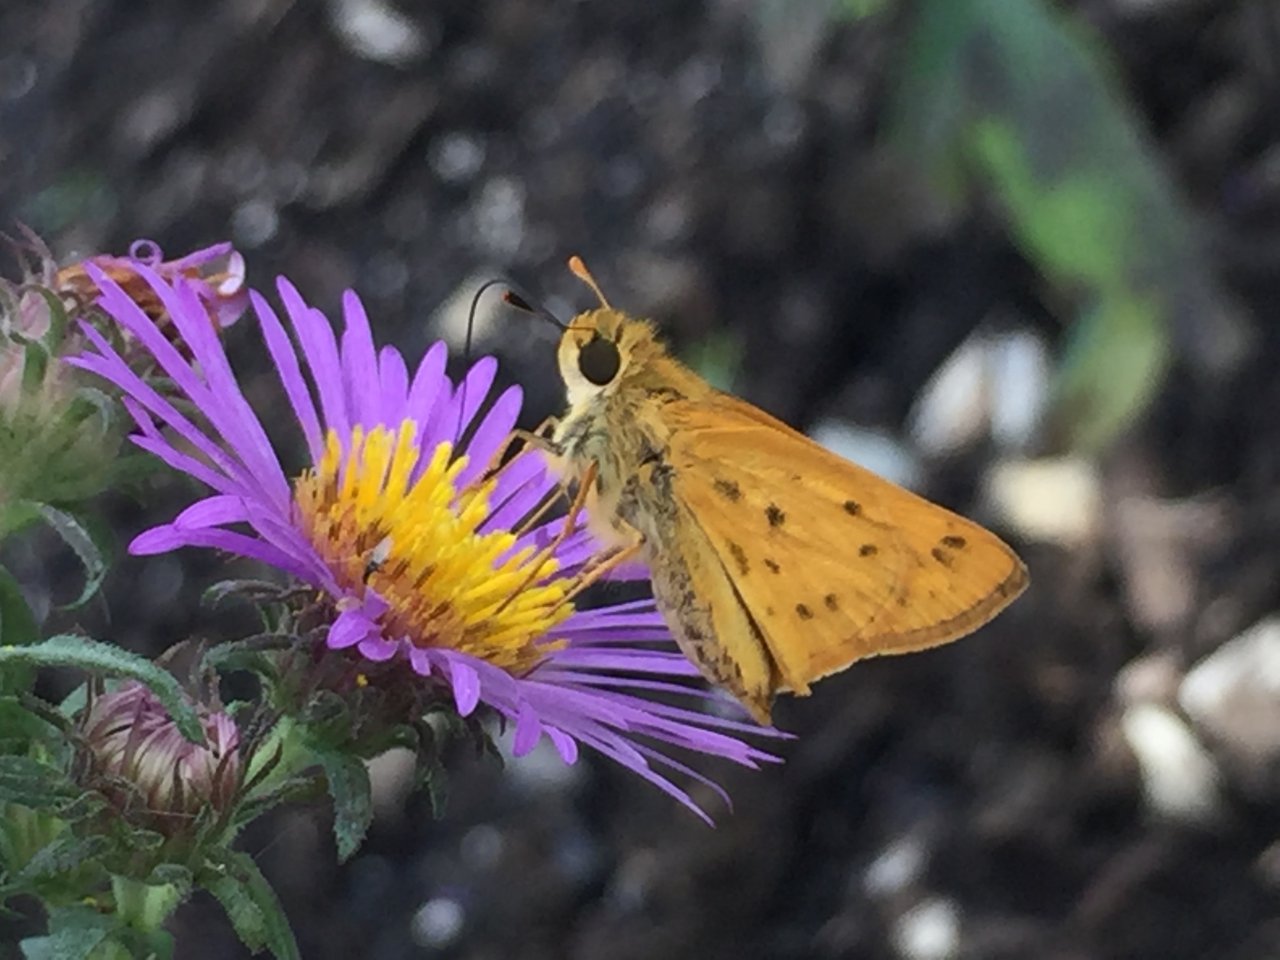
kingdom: Animalia
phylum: Arthropoda
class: Insecta
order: Lepidoptera
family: Hesperiidae
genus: Hylephila
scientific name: Hylephila phyleus
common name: Fiery Skipper
